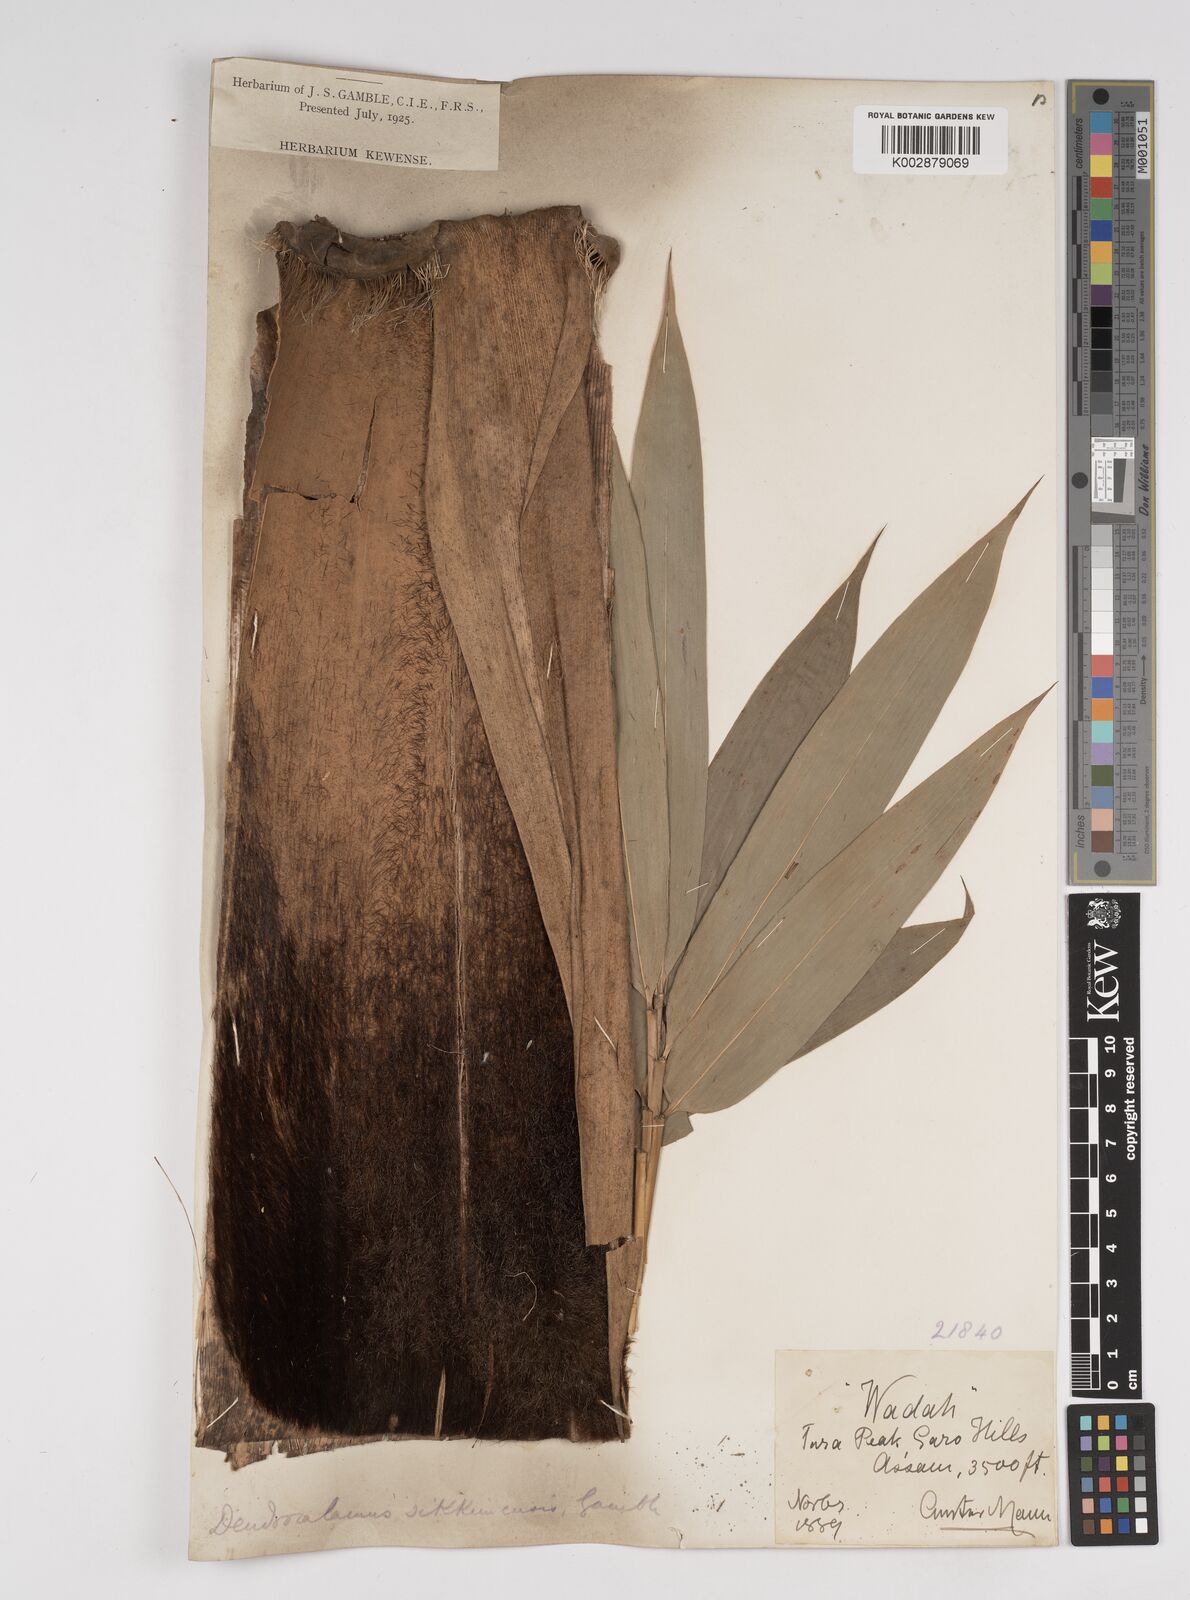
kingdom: Plantae
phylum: Tracheophyta
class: Liliopsida
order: Poales
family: Poaceae
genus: Dendrocalamus
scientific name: Dendrocalamus sikkimensis
